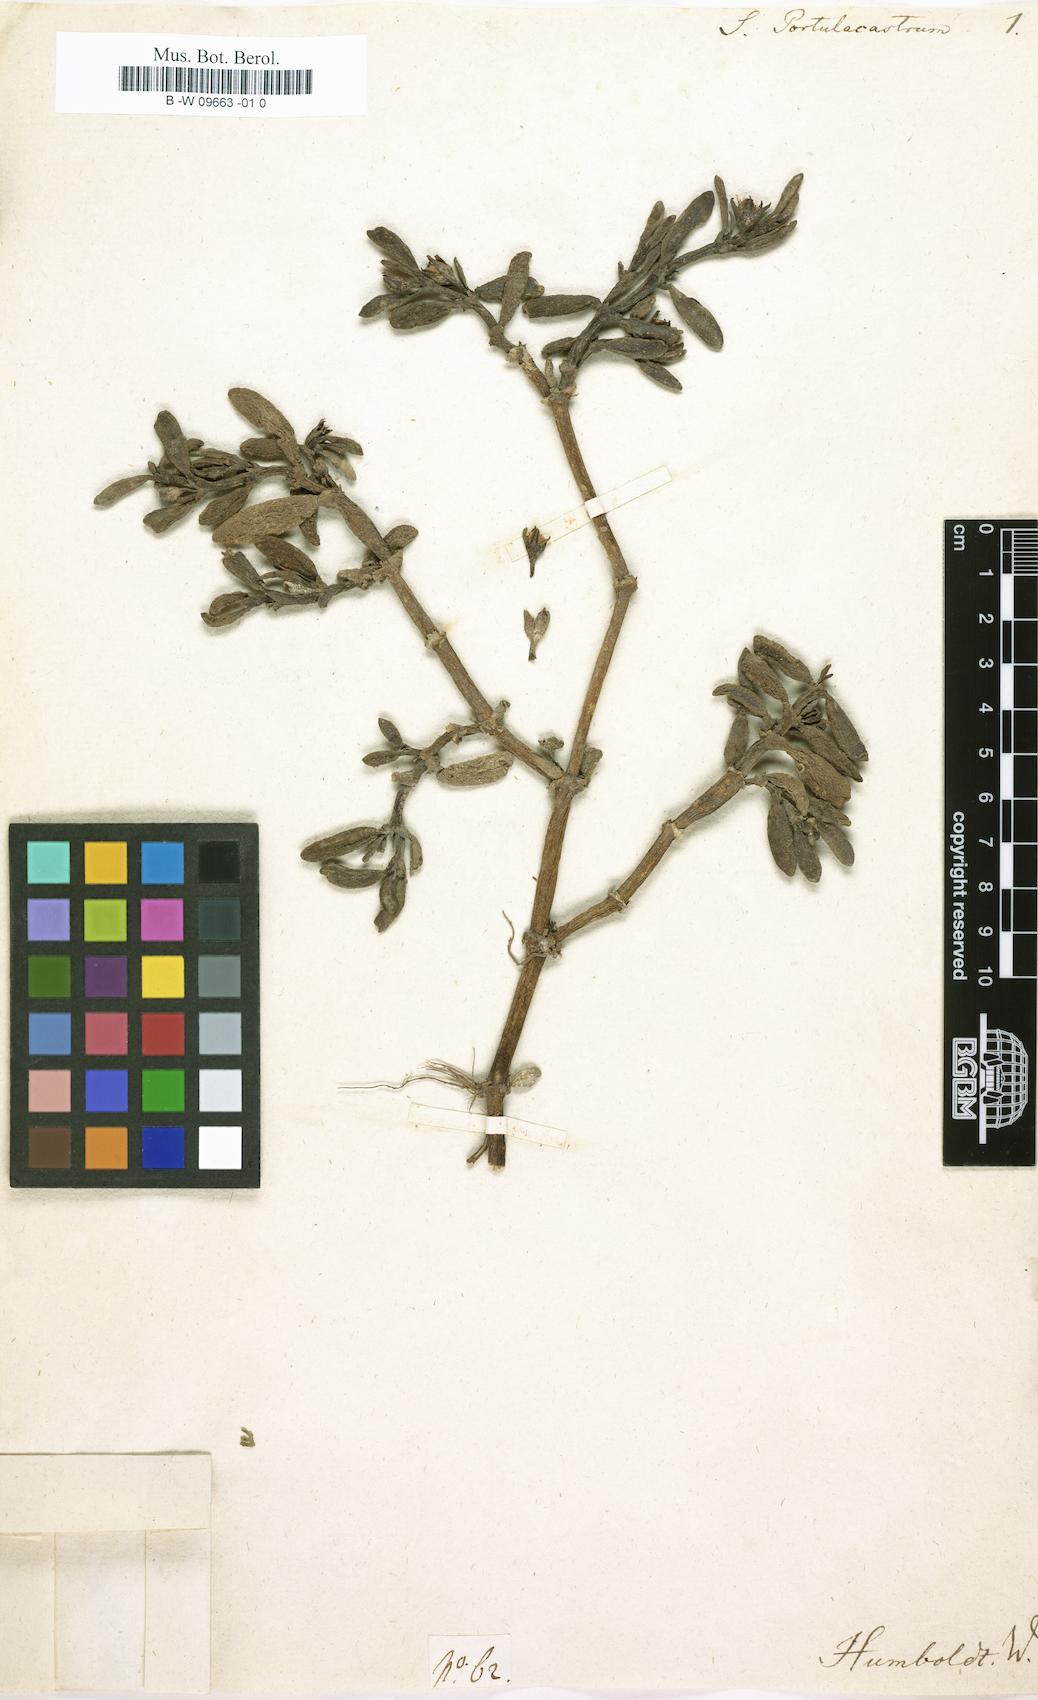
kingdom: Plantae
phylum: Tracheophyta
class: Magnoliopsida
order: Caryophyllales
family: Aizoaceae
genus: Sesuvium
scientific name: Sesuvium portulacastrum
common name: Sea-purslane
